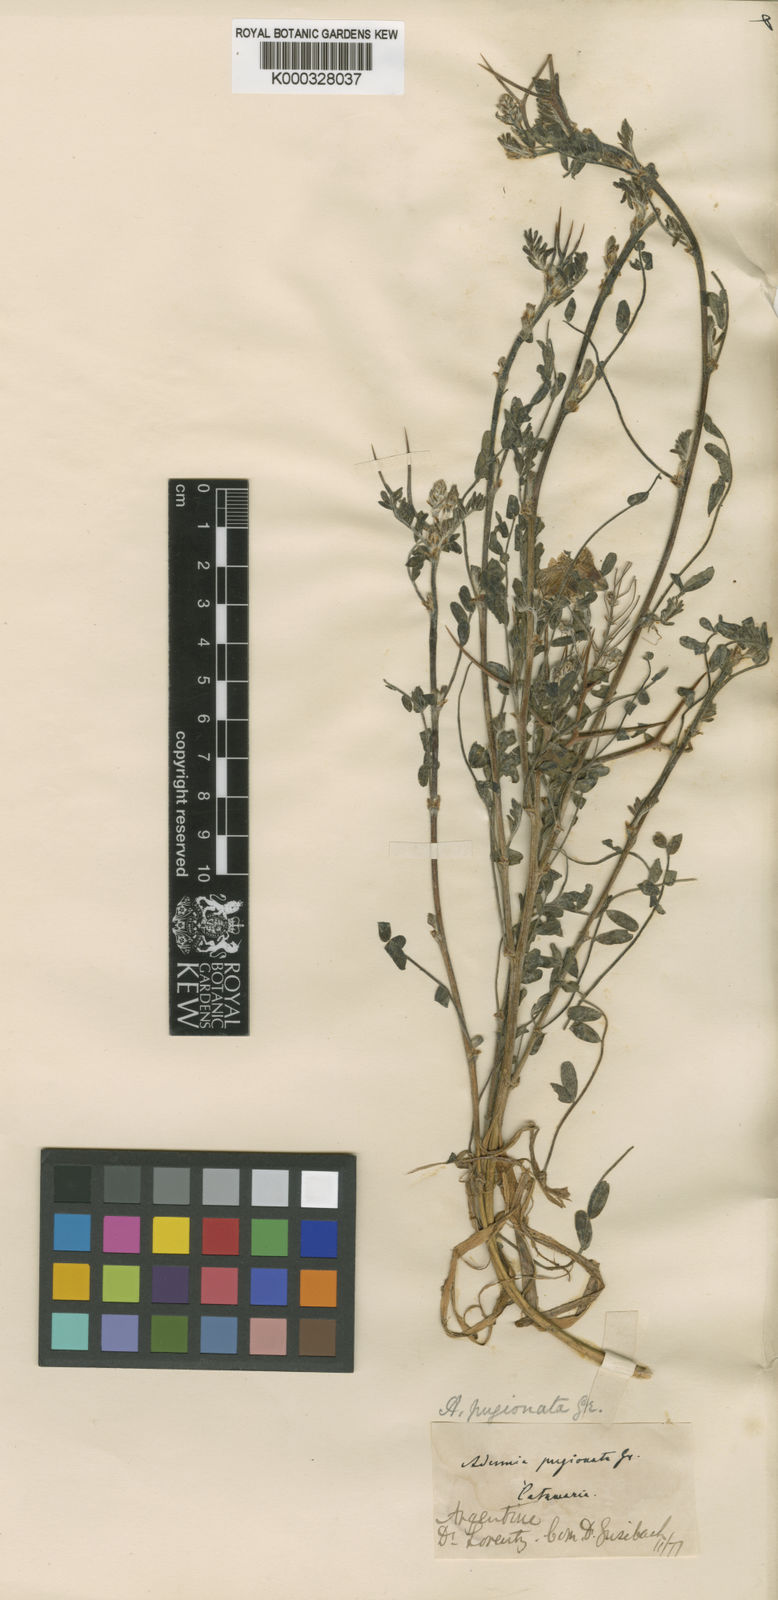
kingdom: Plantae
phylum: Tracheophyta
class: Magnoliopsida
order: Fabales
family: Fabaceae
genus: Adesmia
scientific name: Adesmia cytisoides
